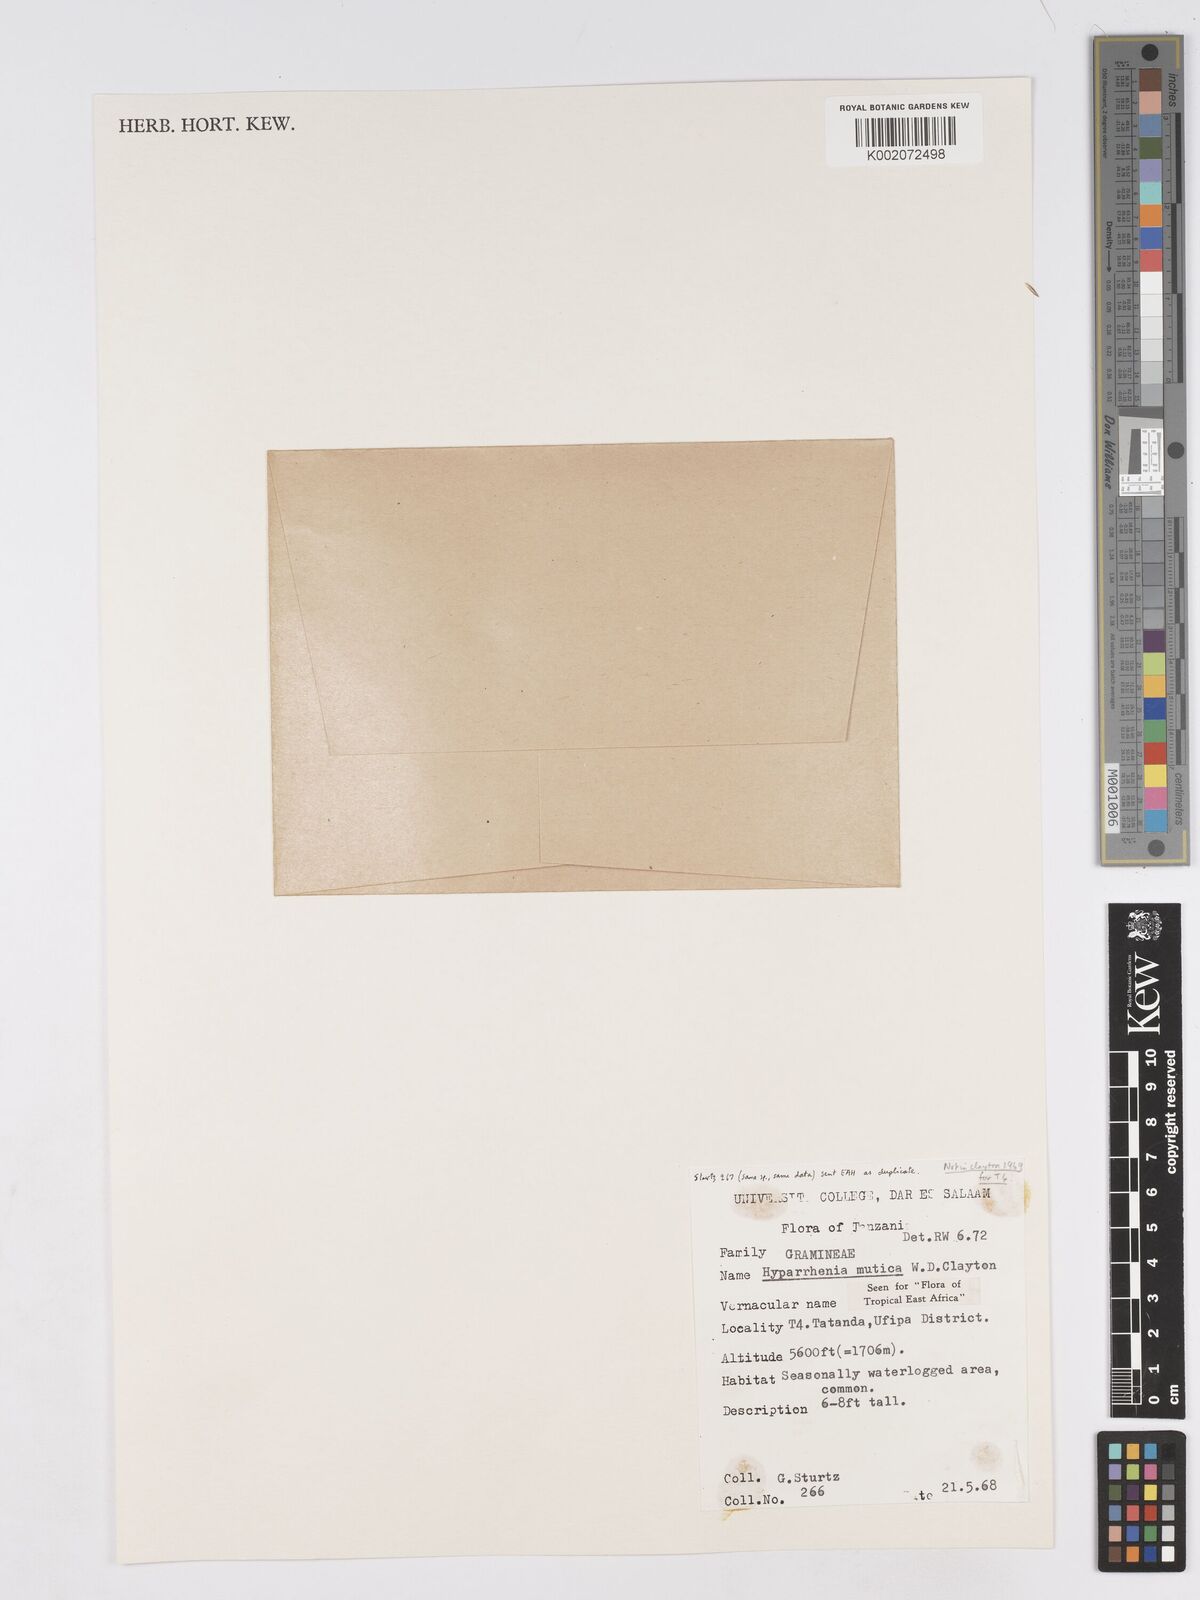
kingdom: Plantae
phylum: Tracheophyta
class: Liliopsida
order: Poales
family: Poaceae
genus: Hyparrhenia
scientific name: Hyparrhenia diplandra
